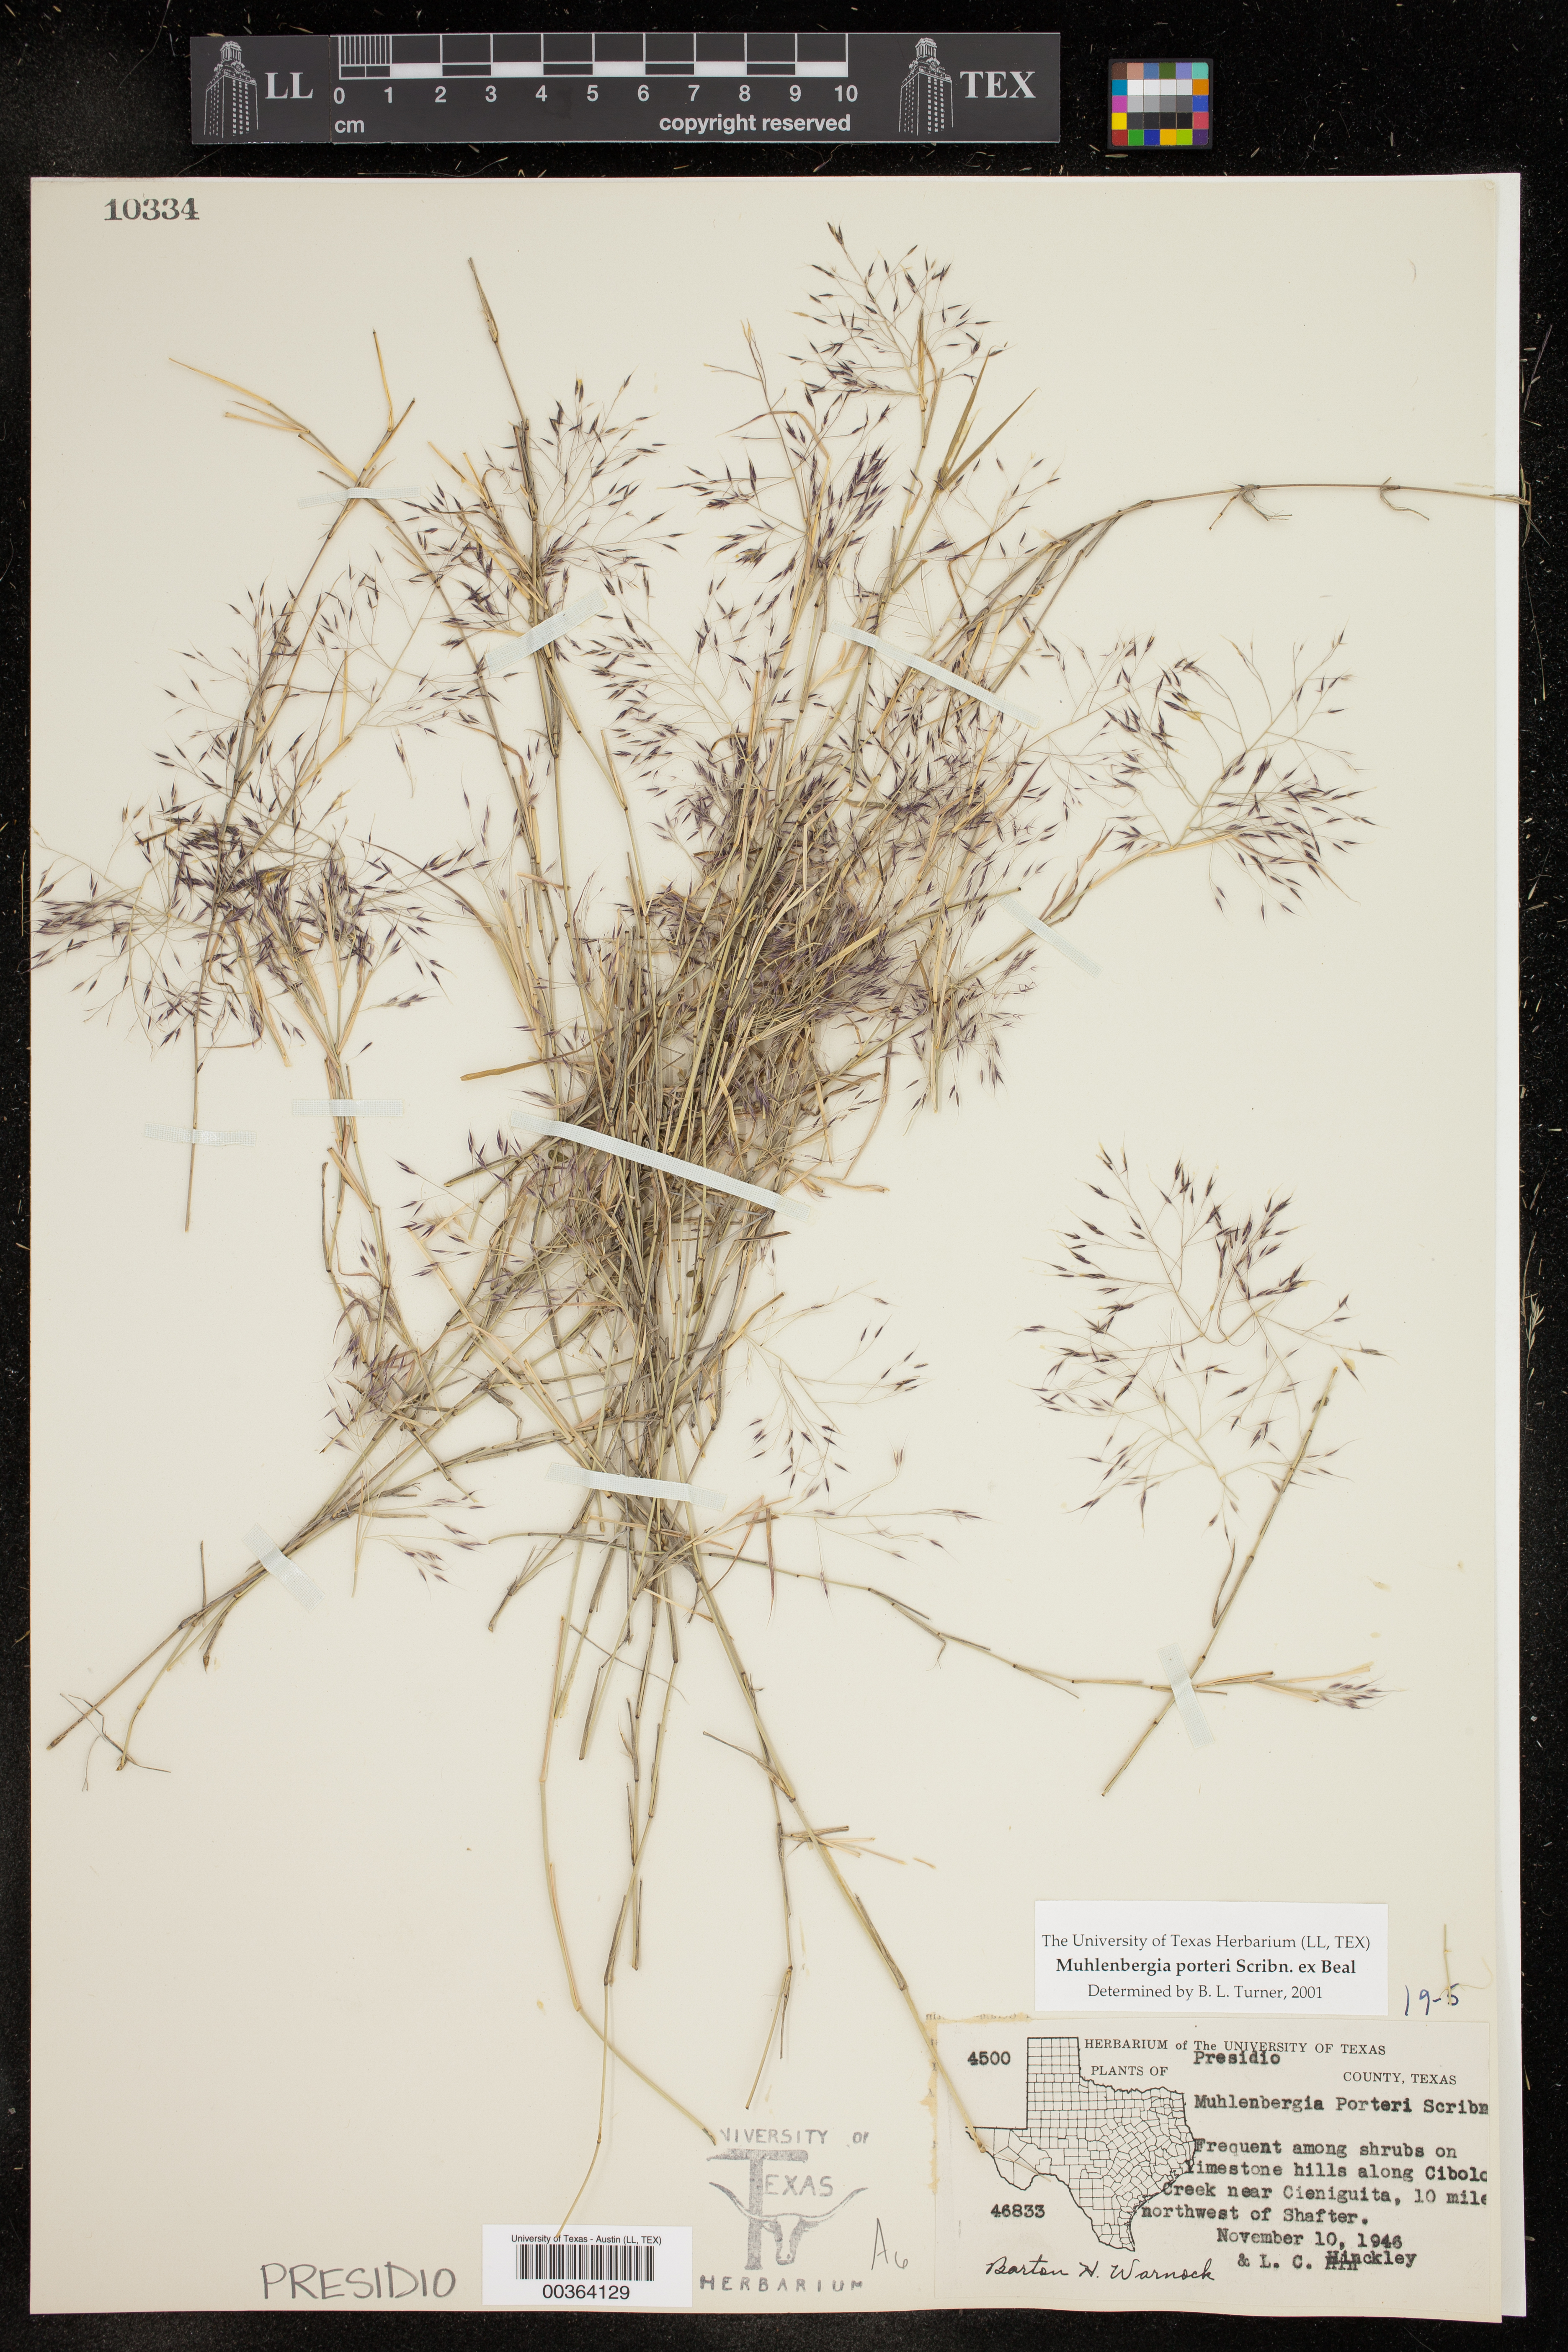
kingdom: Plantae
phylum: Tracheophyta
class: Liliopsida
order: Poales
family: Poaceae
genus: Muhlenbergia
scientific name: Muhlenbergia porteri
